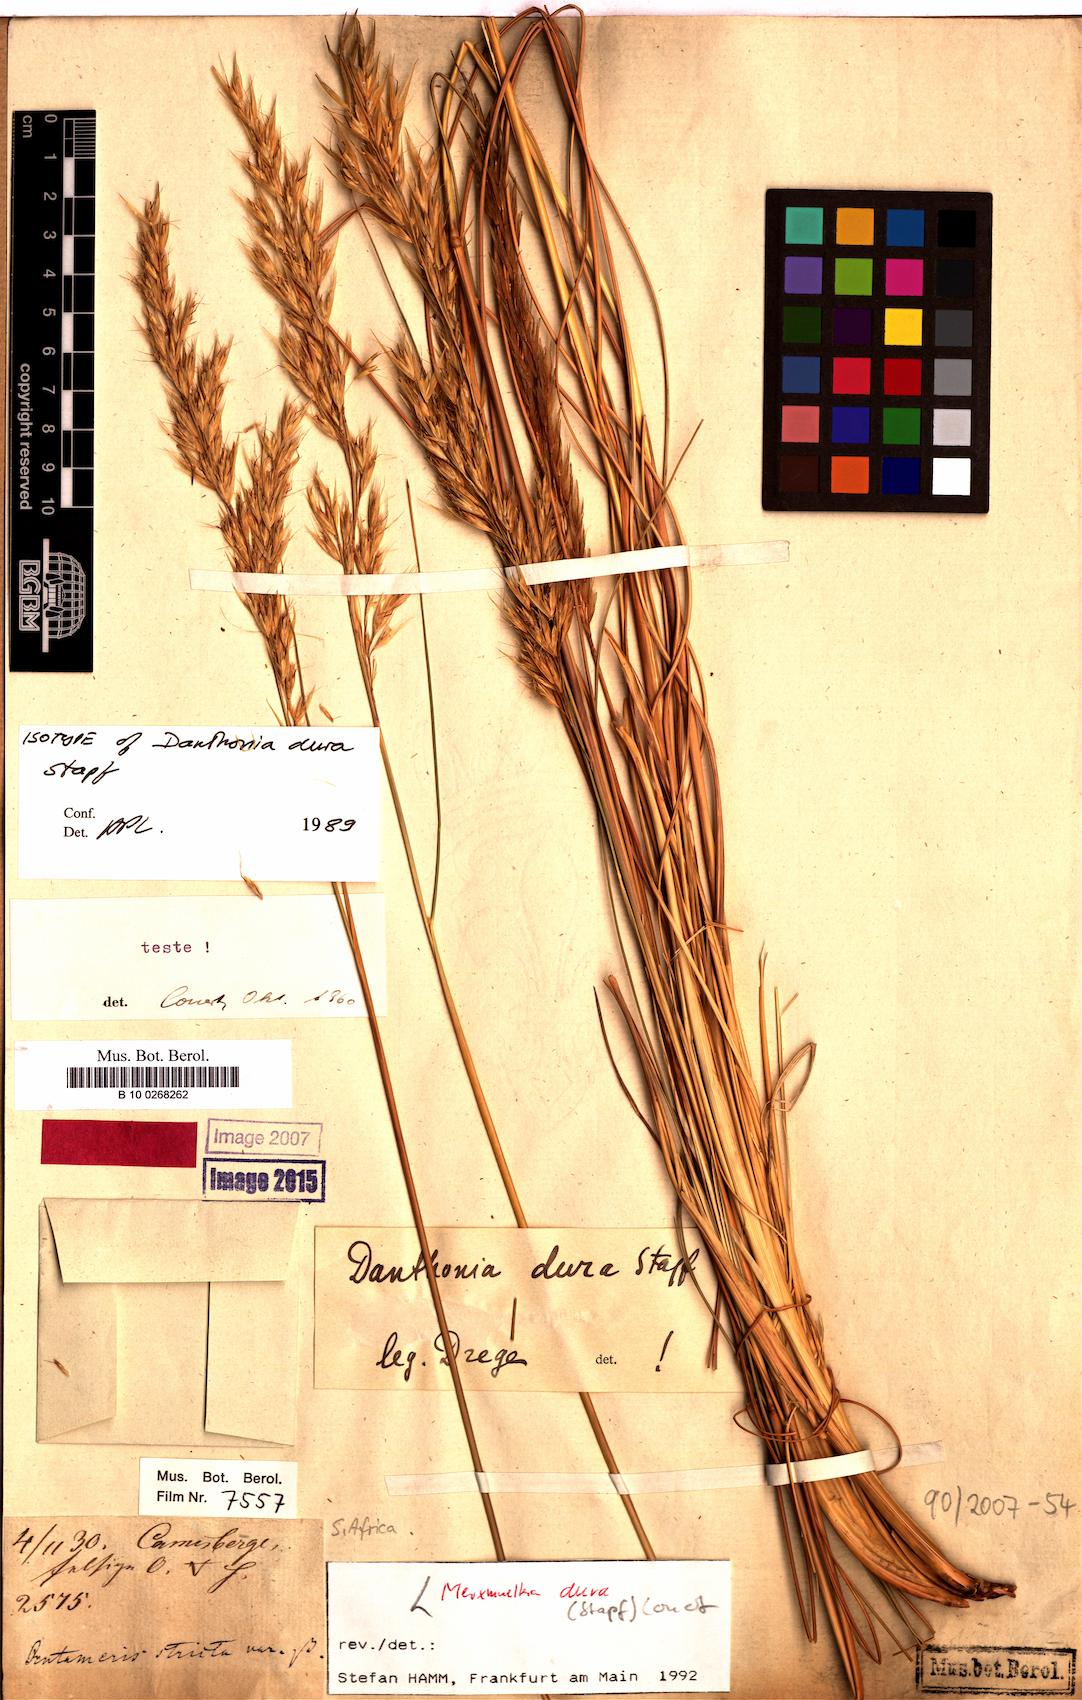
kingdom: Plantae
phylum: Tracheophyta
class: Liliopsida
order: Poales
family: Poaceae
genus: Tenaxia
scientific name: Tenaxia dura
